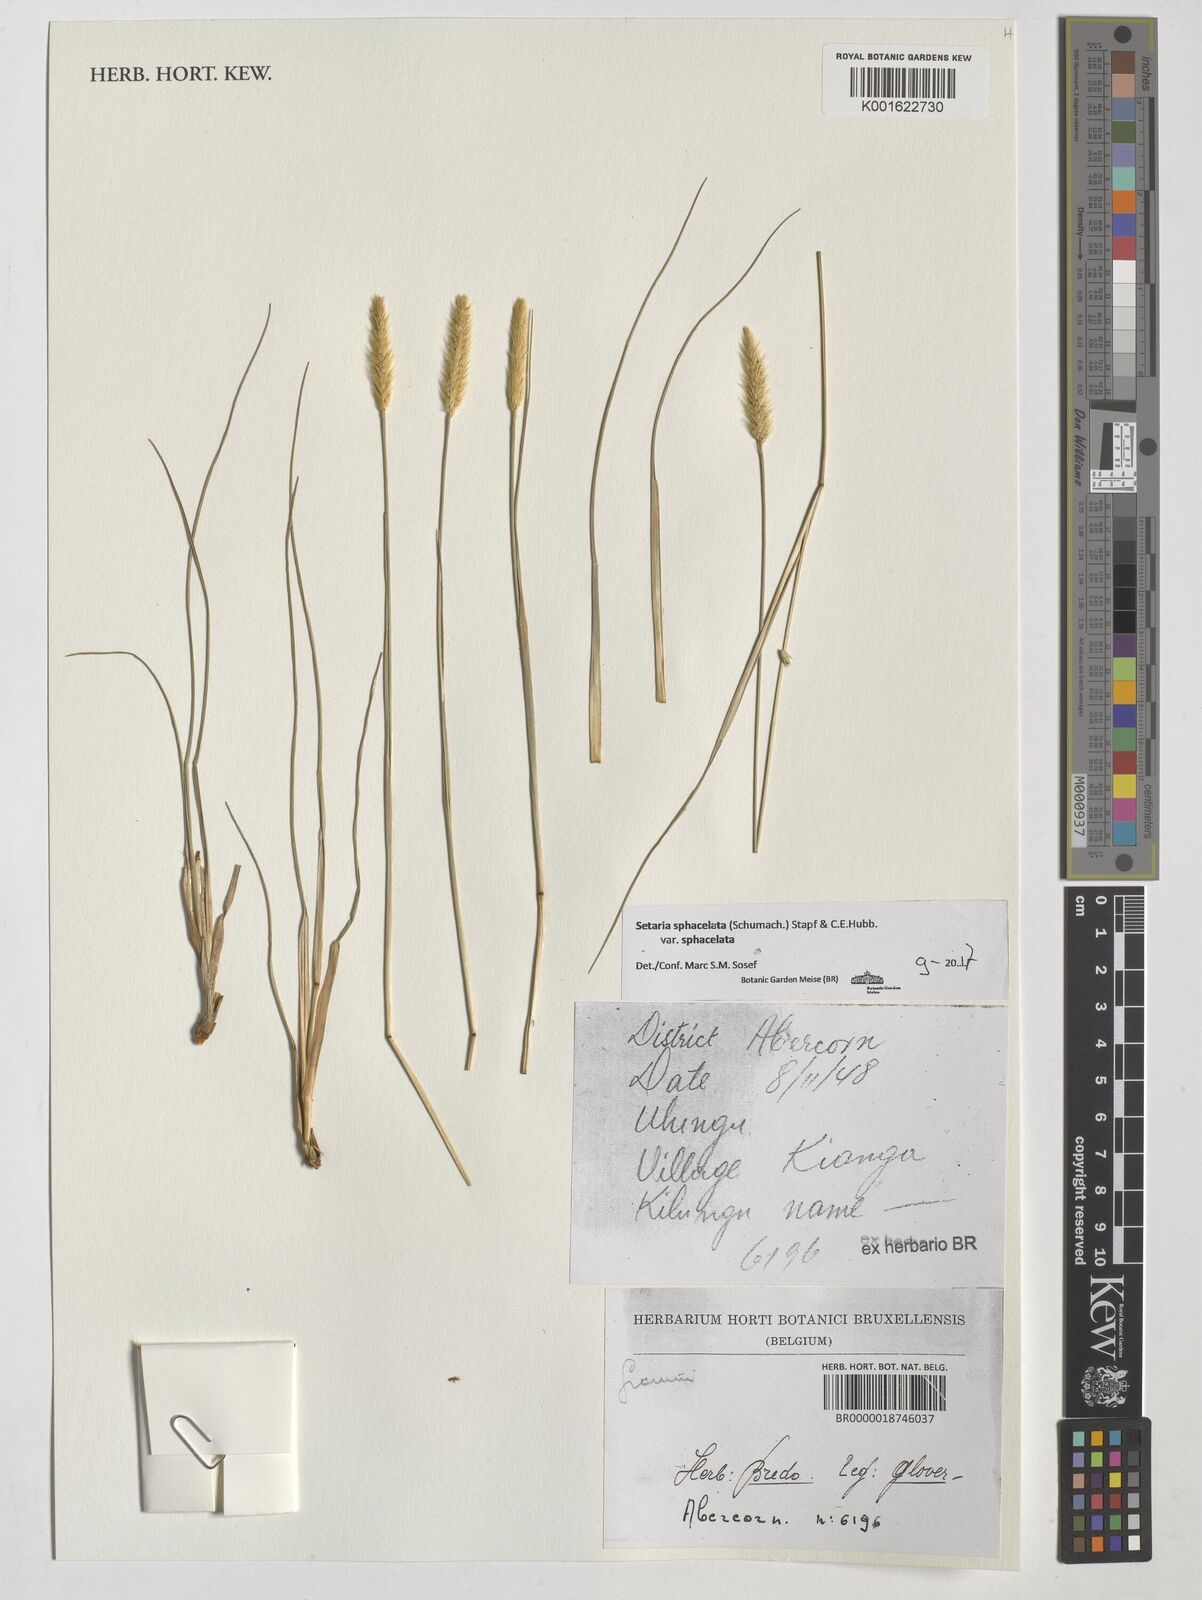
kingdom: Plantae
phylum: Tracheophyta
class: Liliopsida
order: Poales
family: Poaceae
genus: Setaria
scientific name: Setaria sphacelata
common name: African bristlegrass
